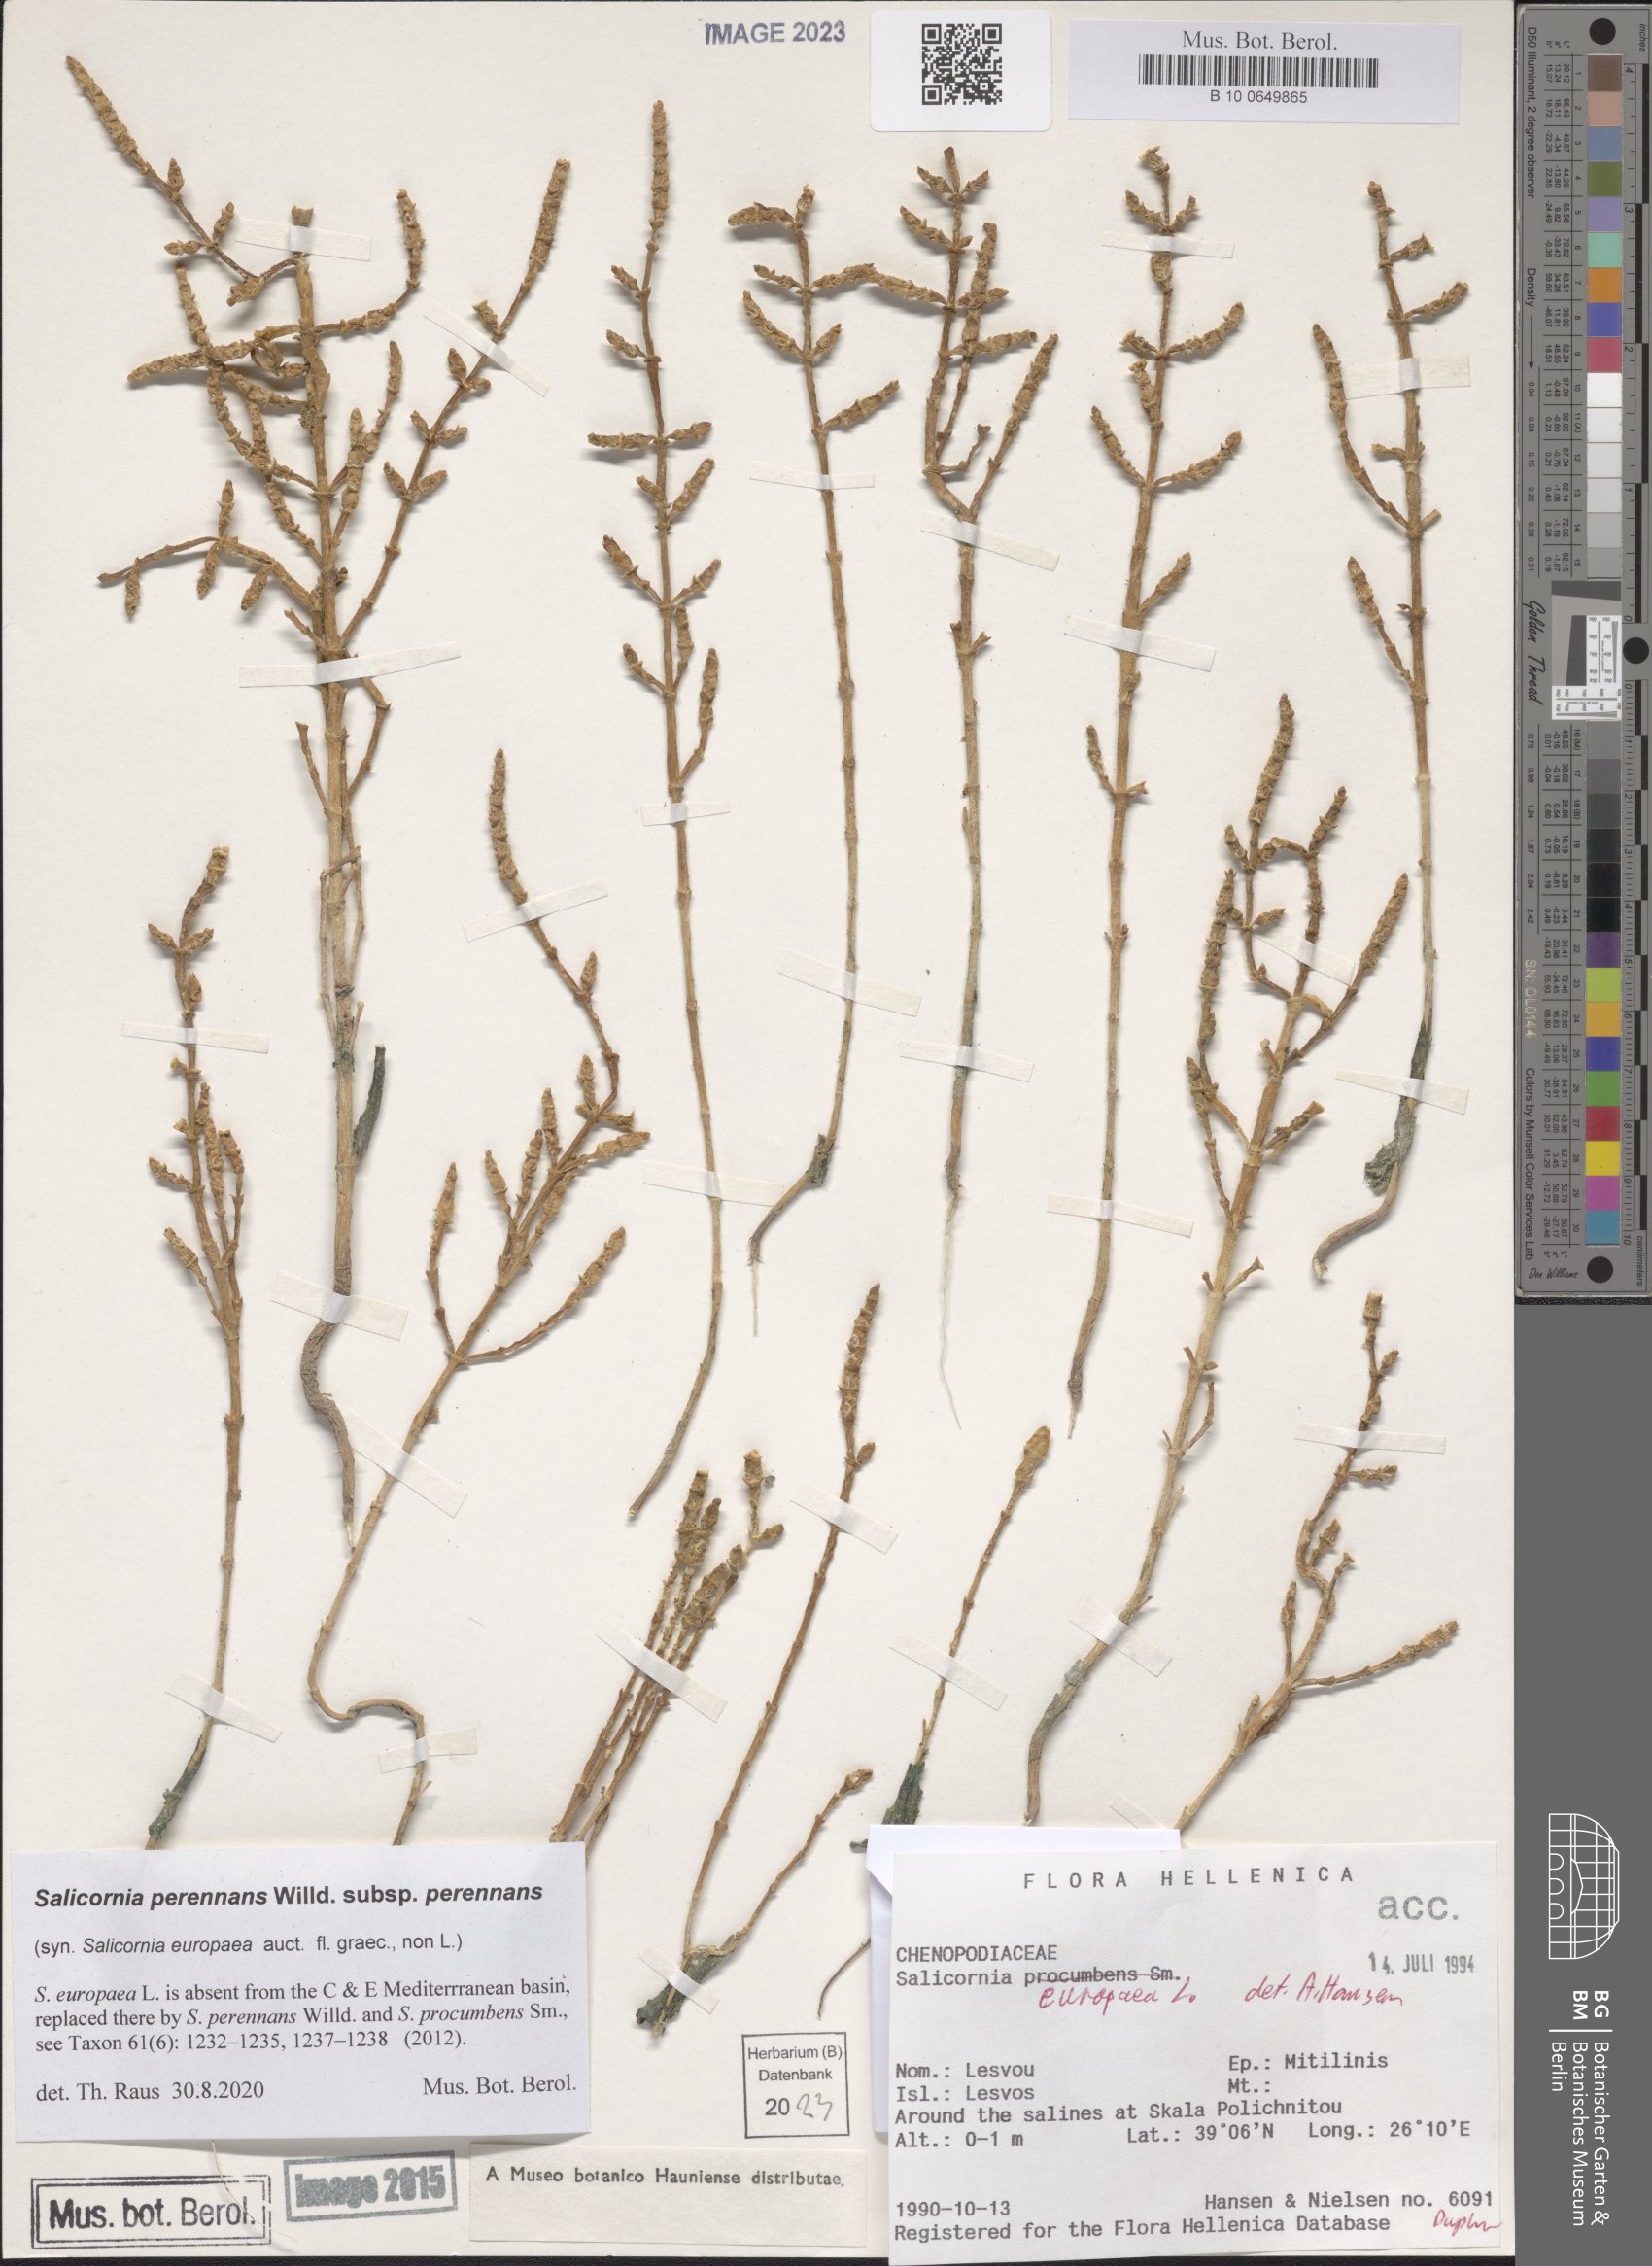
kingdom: Plantae
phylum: Tracheophyta
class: Magnoliopsida
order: Caryophyllales
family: Amaranthaceae
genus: Salicornia
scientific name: Salicornia perennans
